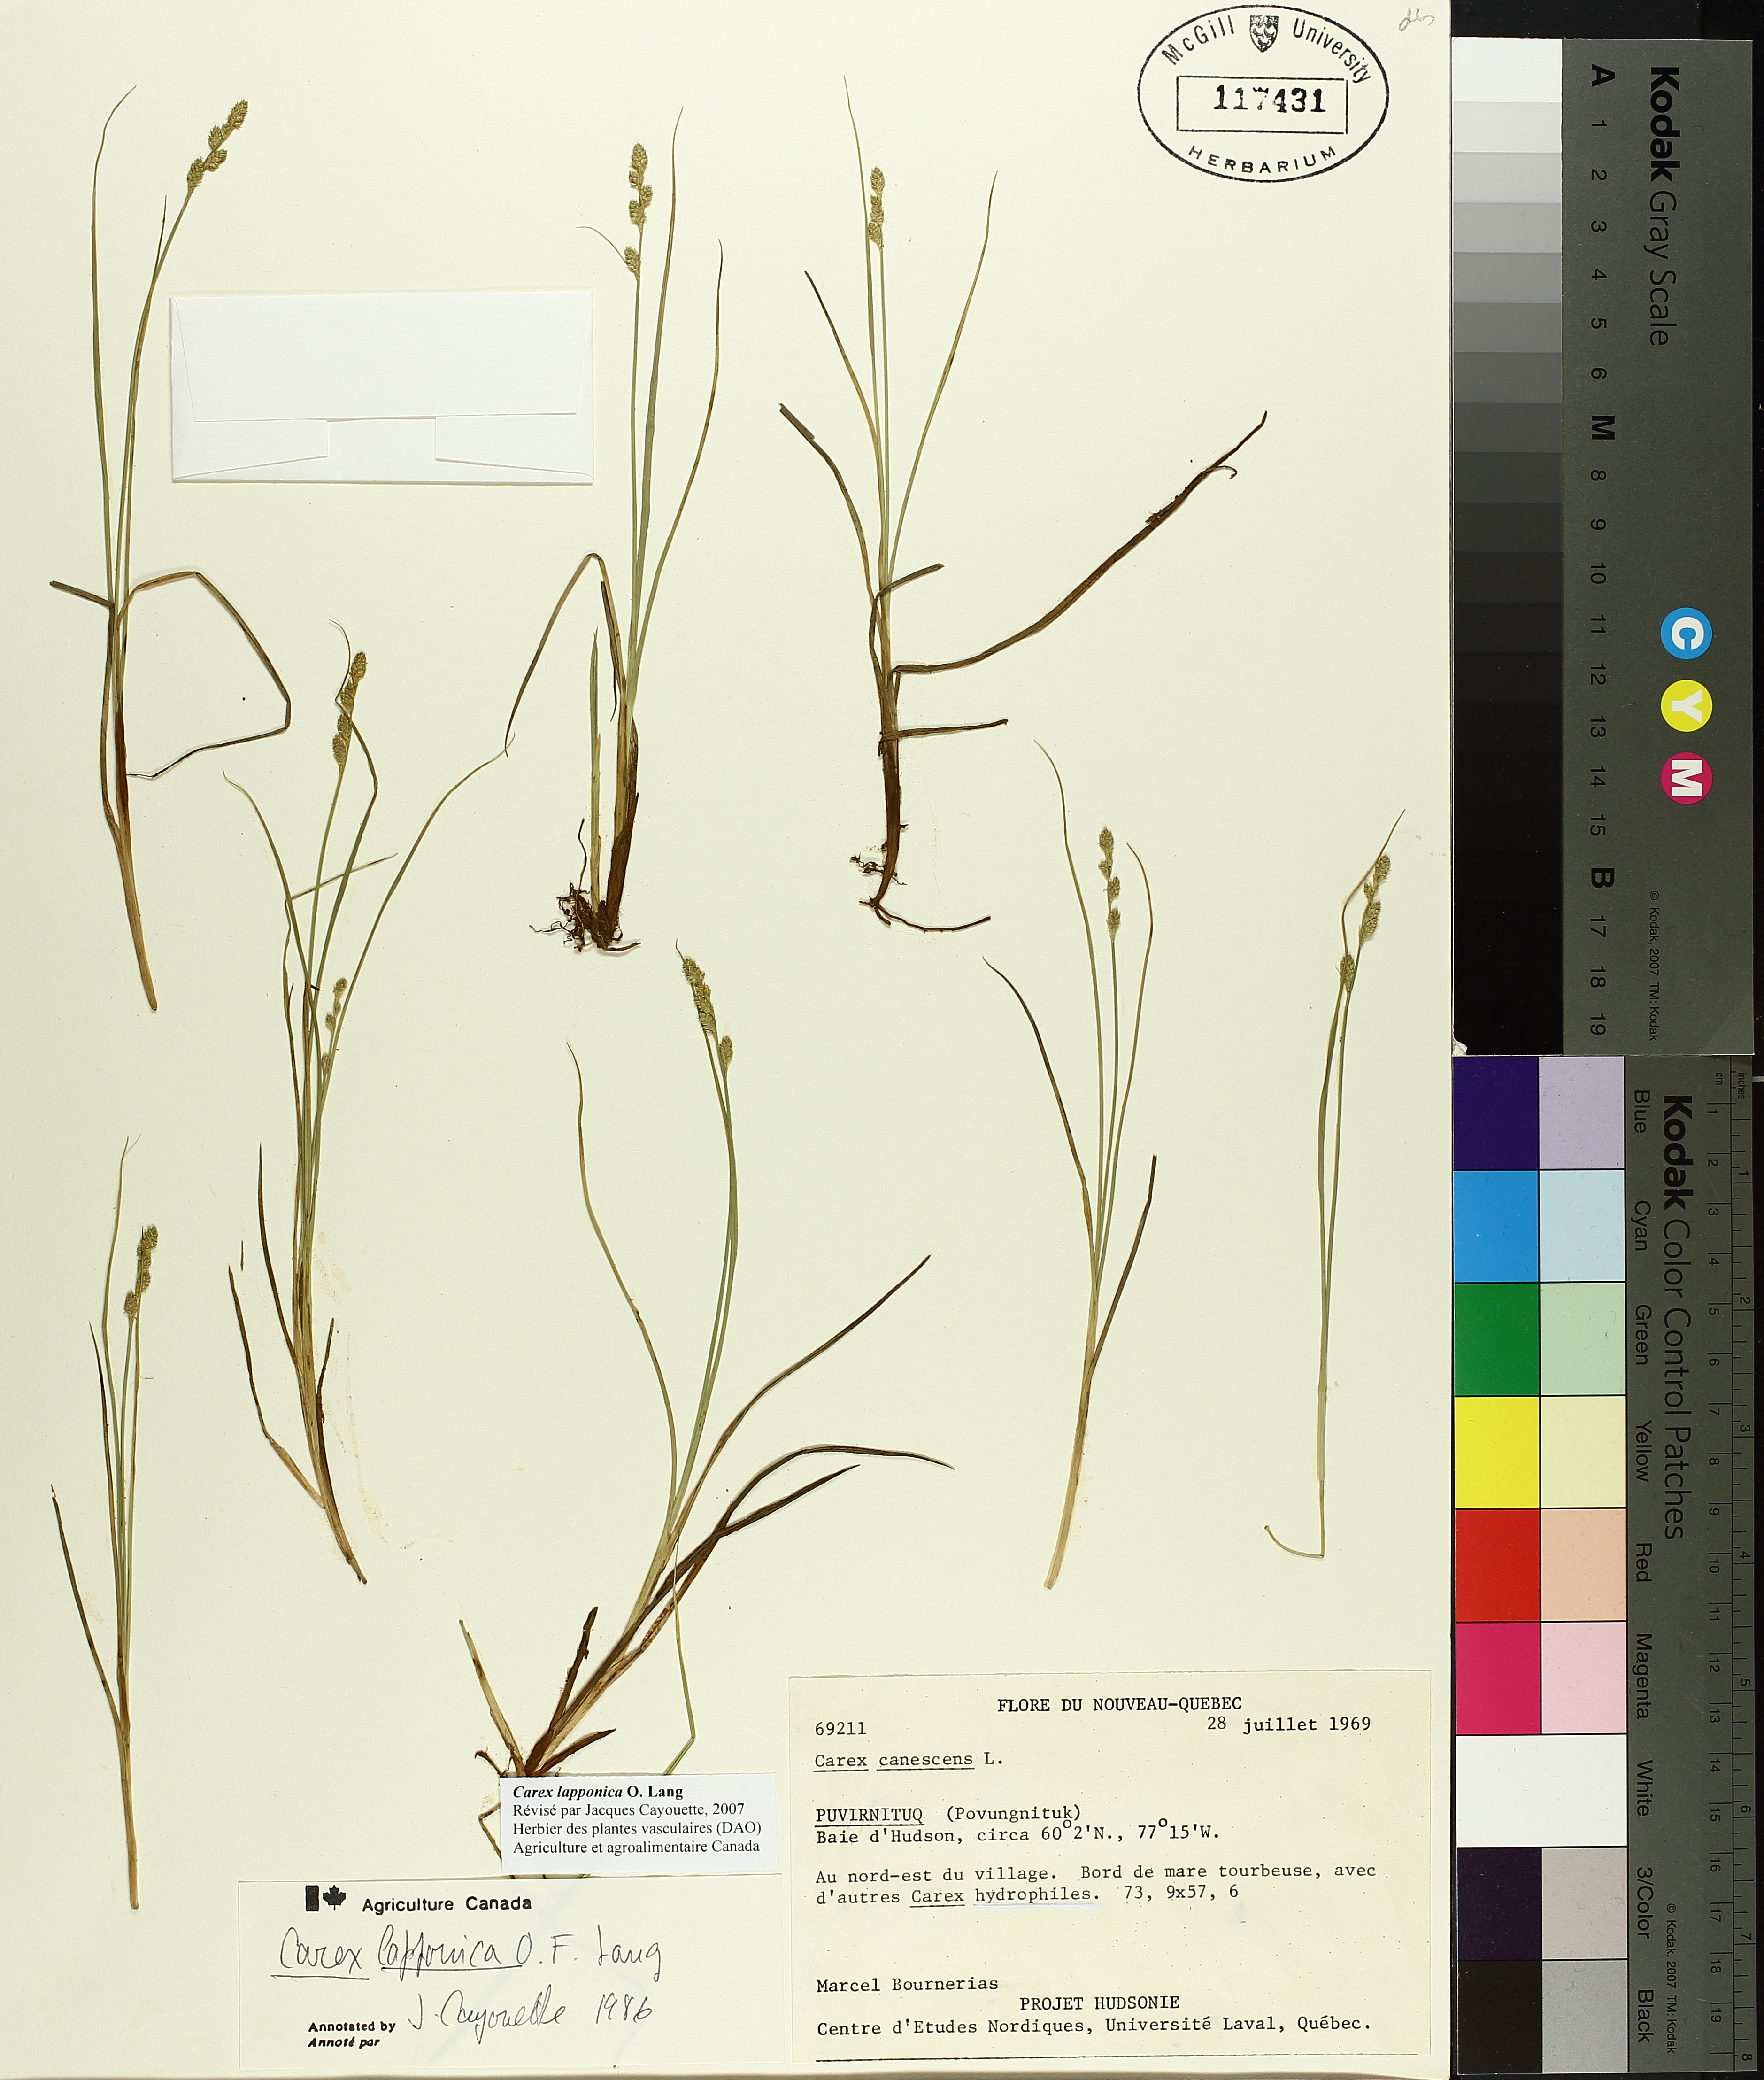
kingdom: Plantae
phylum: Tracheophyta
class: Liliopsida
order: Poales
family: Cyperaceae
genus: Carex
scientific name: Carex lapponica
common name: Lapland sedge
